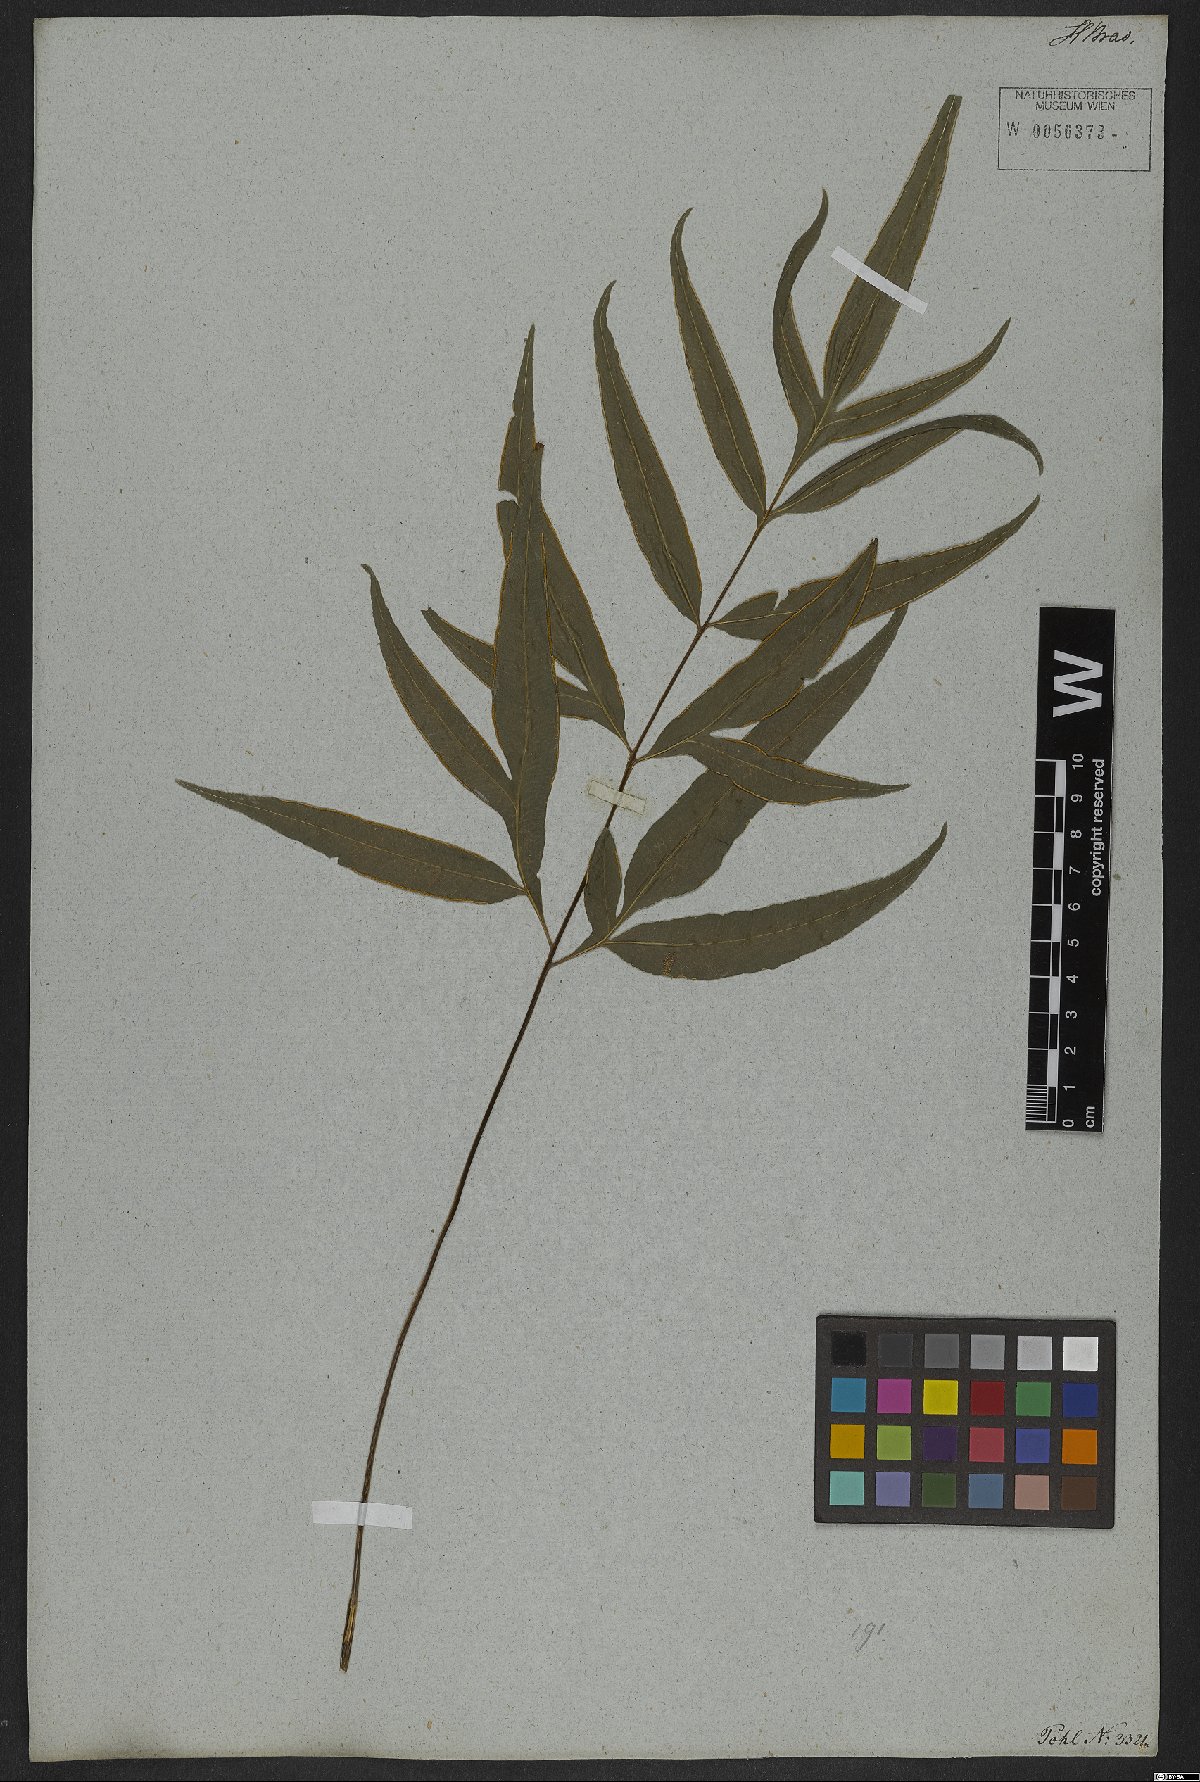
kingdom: Plantae
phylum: Tracheophyta
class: Polypodiopsida
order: Polypodiales
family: Pteridaceae
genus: Pteris
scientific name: Pteris denticulata
